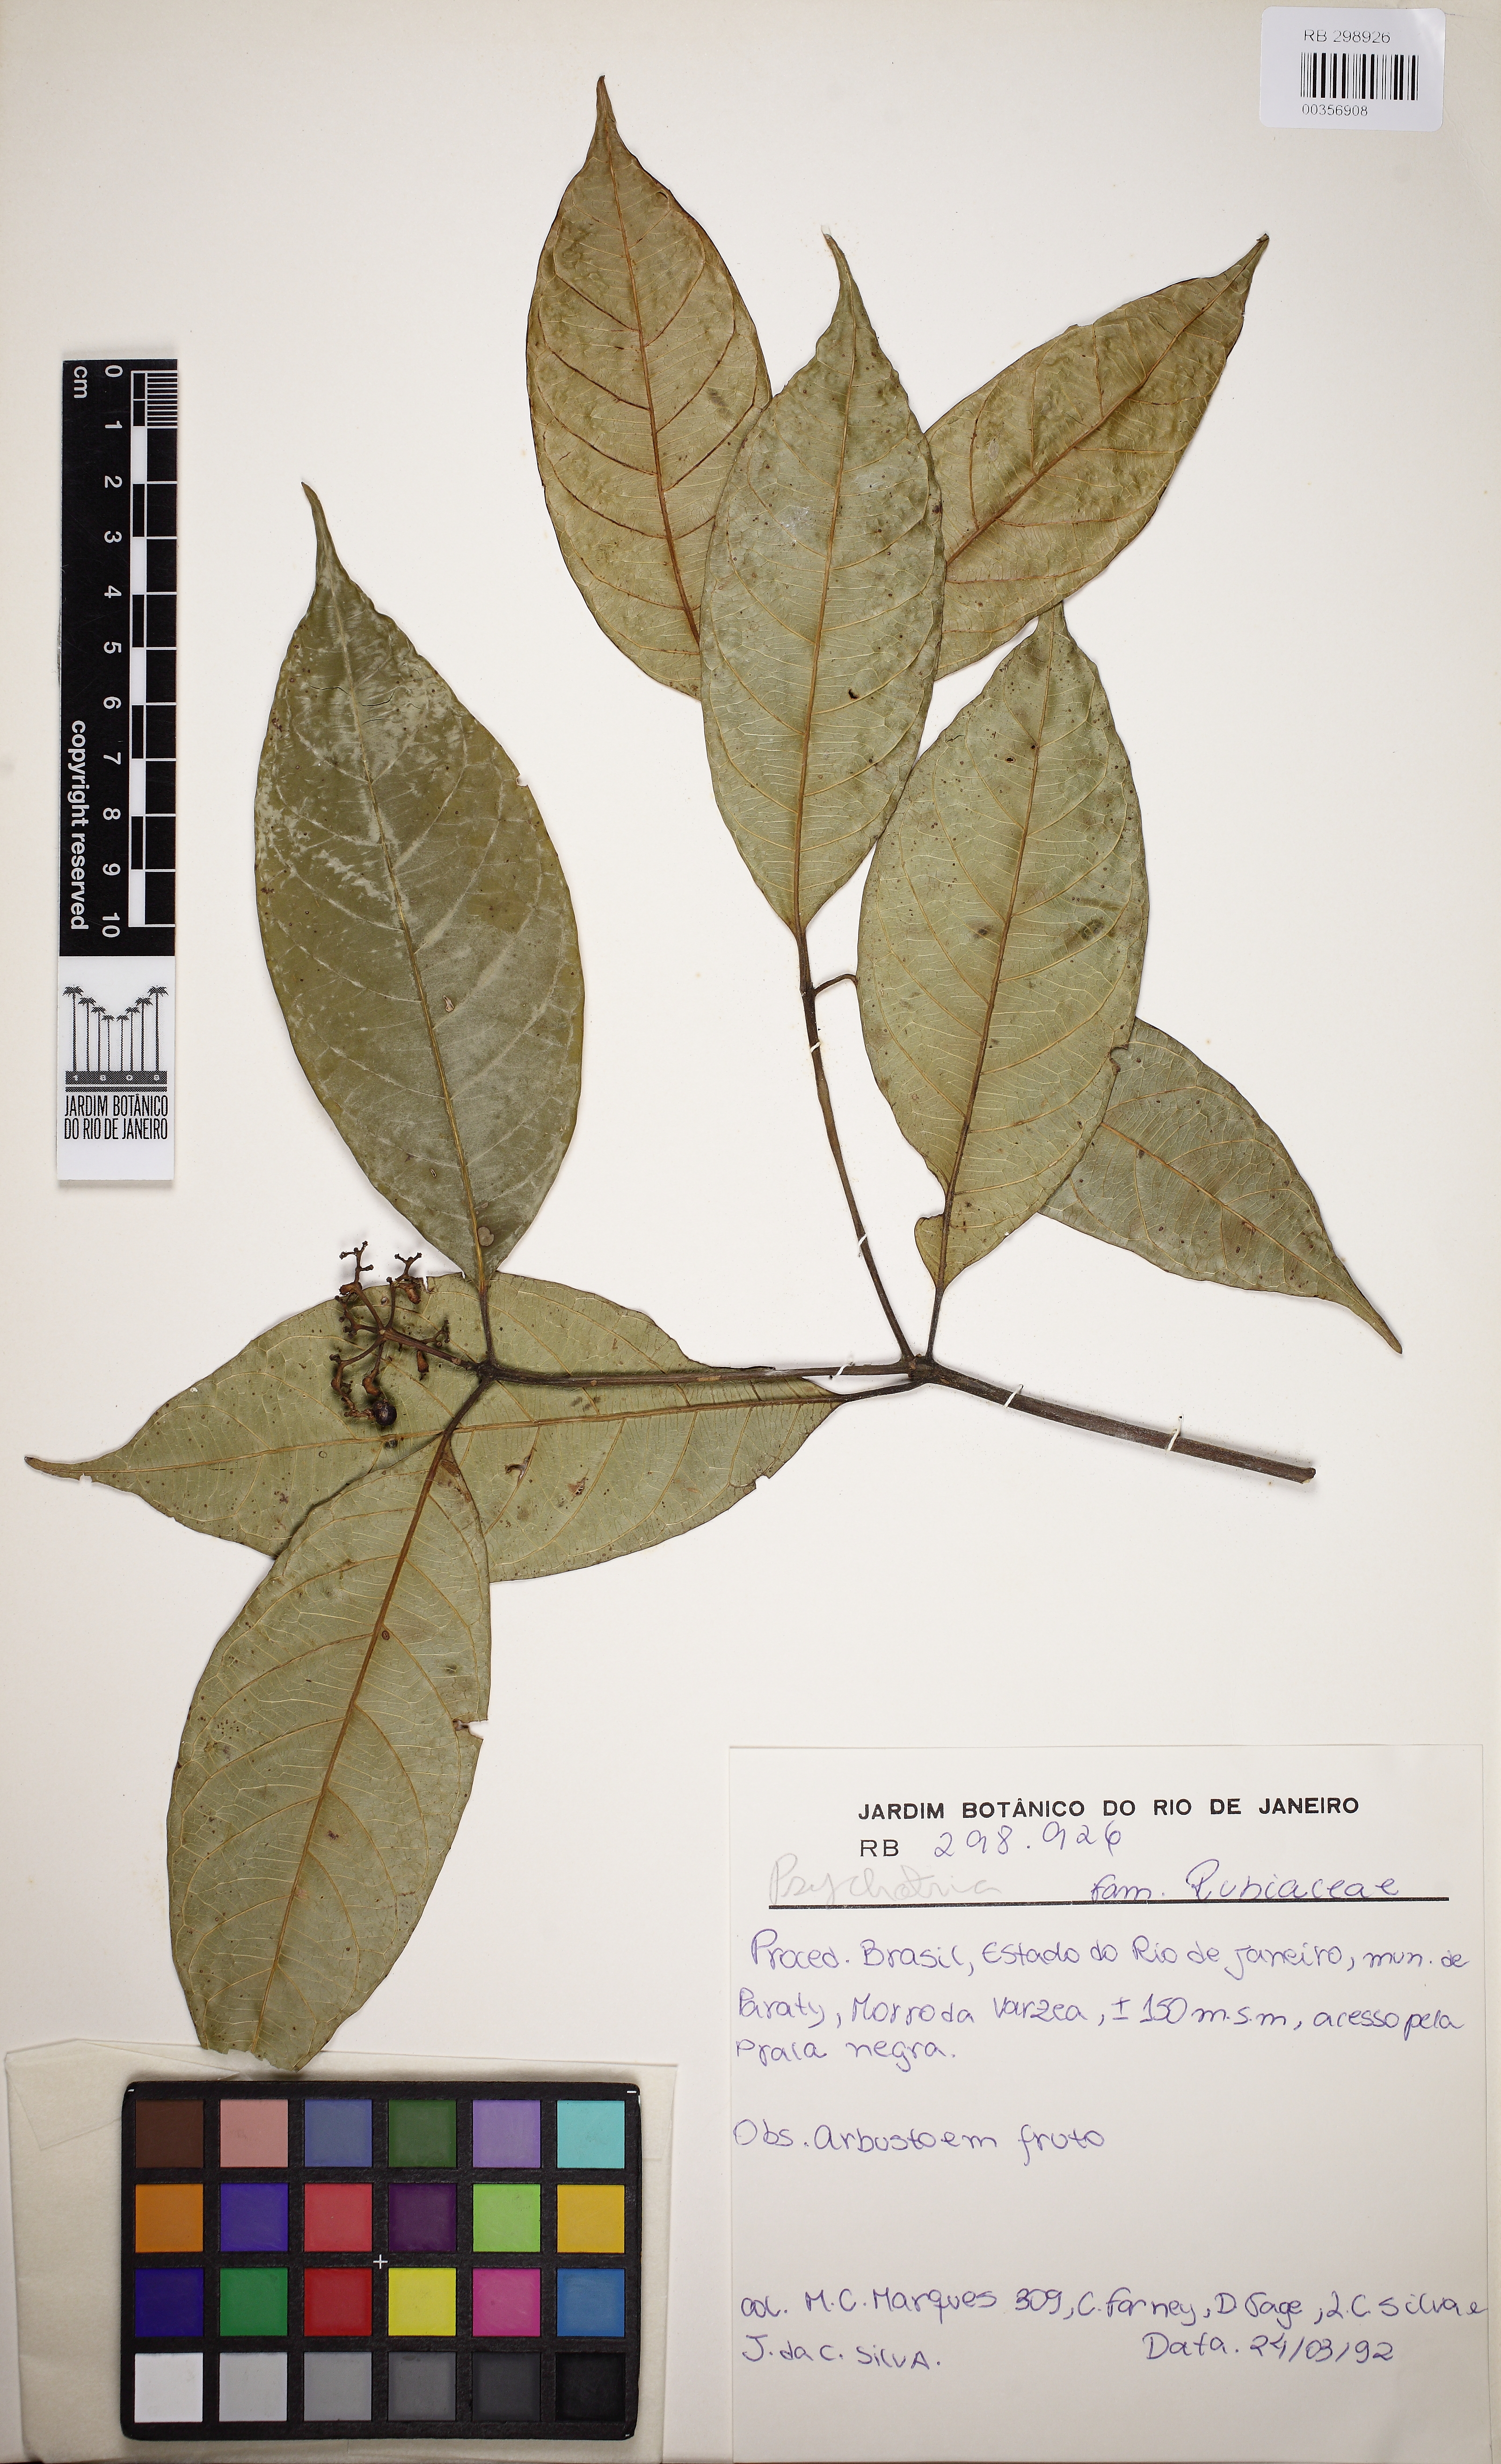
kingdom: Plantae
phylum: Tracheophyta
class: Magnoliopsida
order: Gentianales
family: Rubiaceae
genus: Psychotria
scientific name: Psychotria leitana
